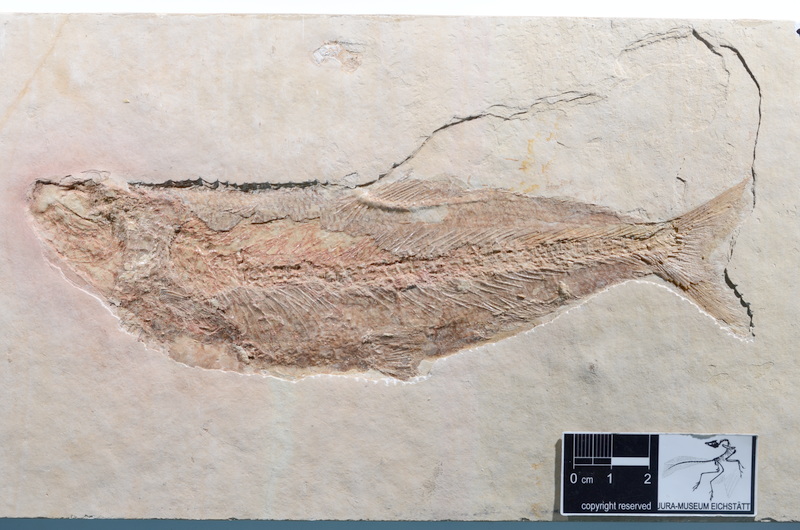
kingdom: Animalia
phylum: Chordata
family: Ascalaboidae
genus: Tharsis
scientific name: Tharsis dubius
